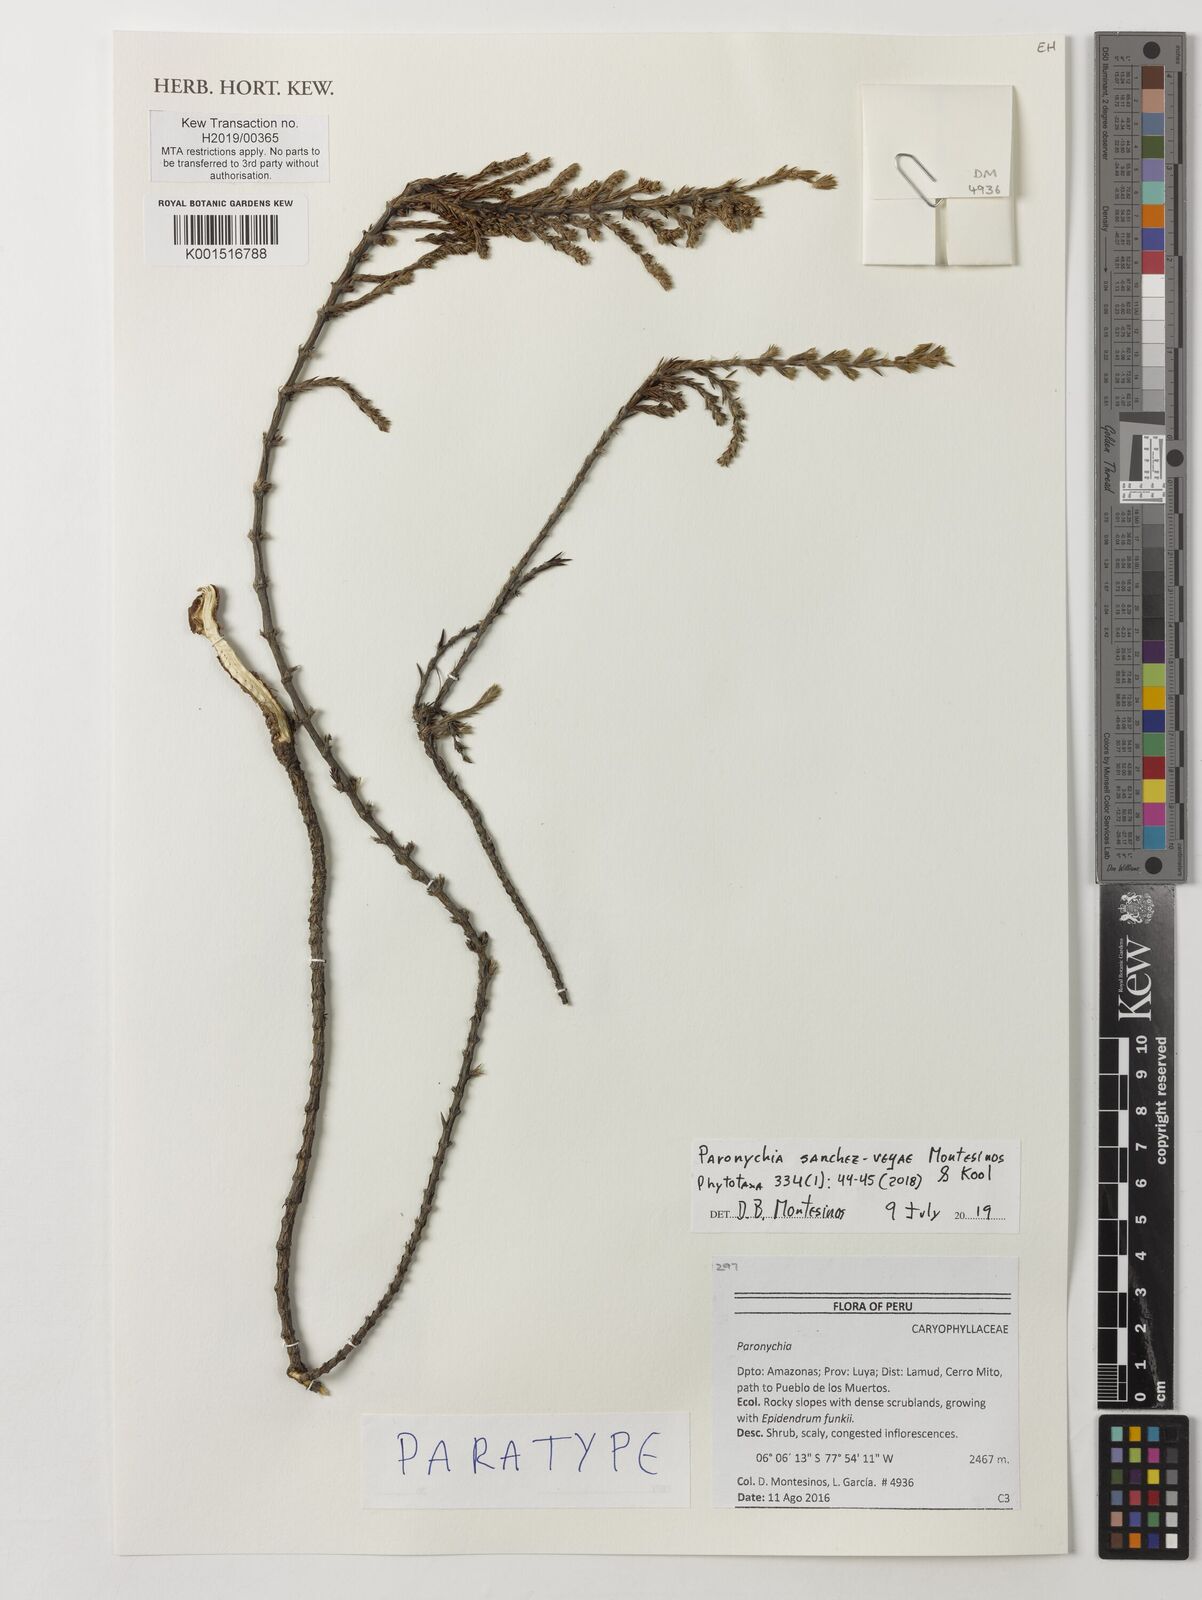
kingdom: Plantae
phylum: Tracheophyta
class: Magnoliopsida
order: Caryophyllales
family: Caryophyllaceae
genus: Paronychia
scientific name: Paronychia sanchez-vegae
